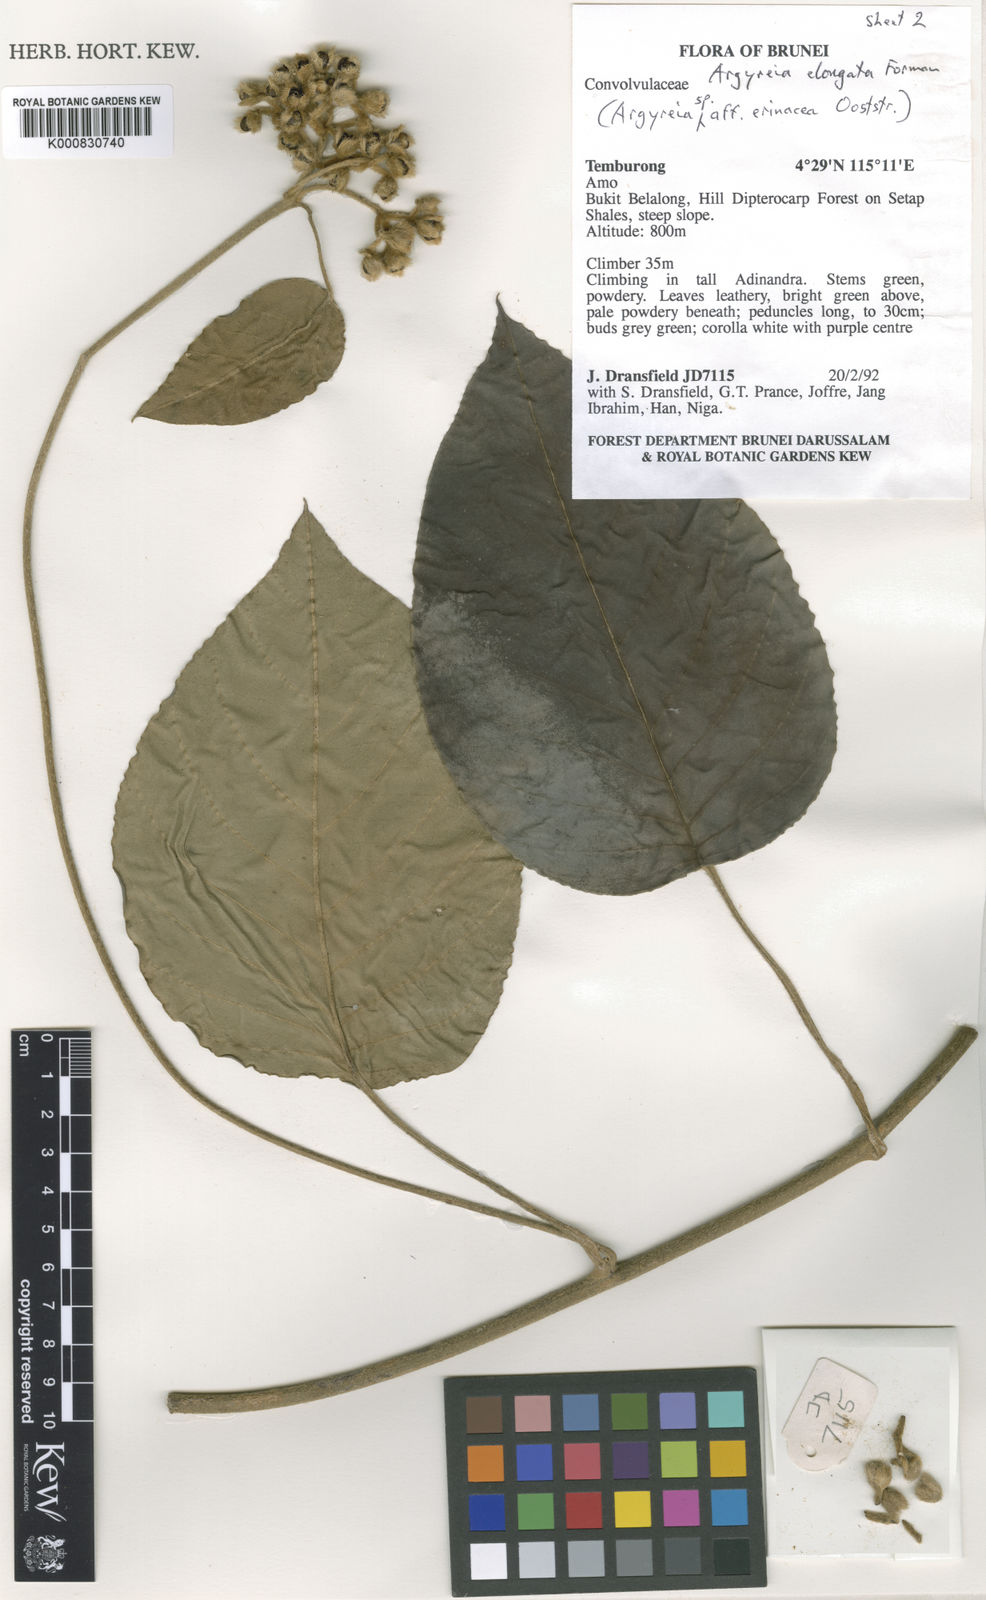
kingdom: Plantae
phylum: Tracheophyta
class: Magnoliopsida
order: Solanales
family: Convolvulaceae
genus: Argyreia
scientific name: Argyreia elongata
